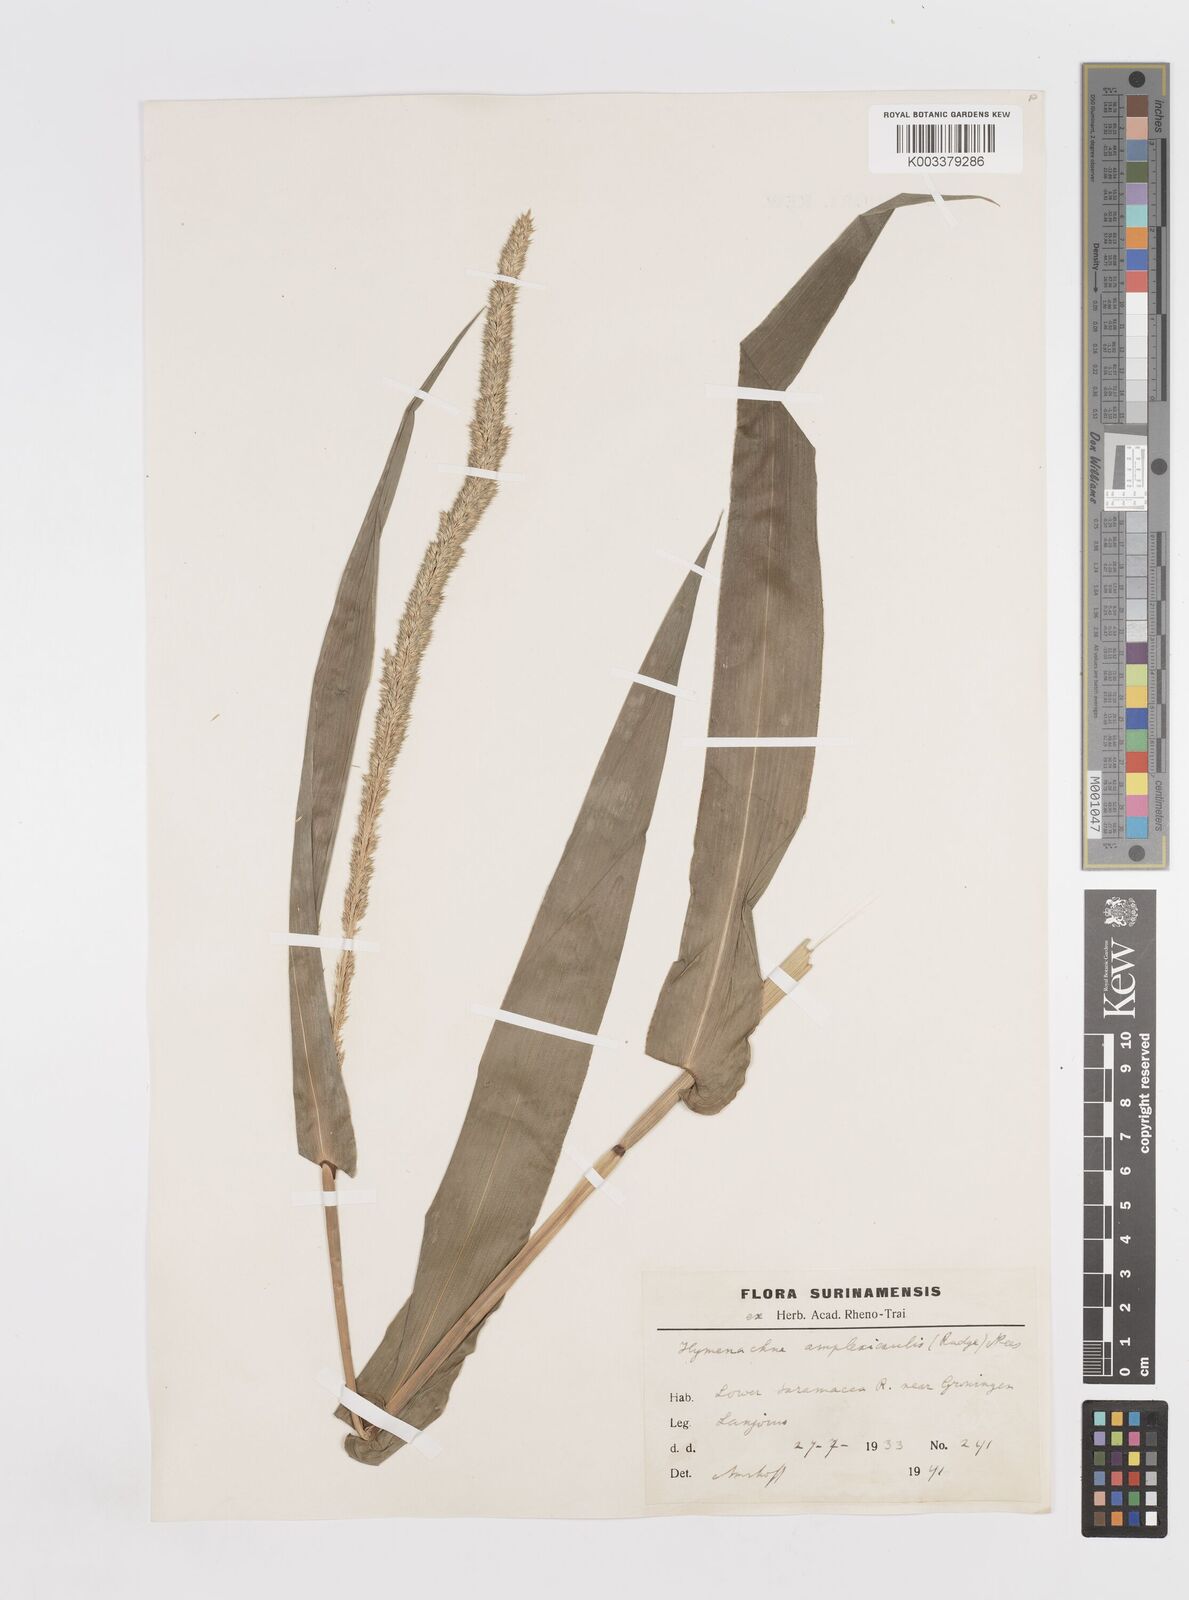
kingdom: Plantae
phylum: Tracheophyta
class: Liliopsida
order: Poales
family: Poaceae
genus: Hymenachne
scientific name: Hymenachne amplexicaulis
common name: Olive hymenachne
